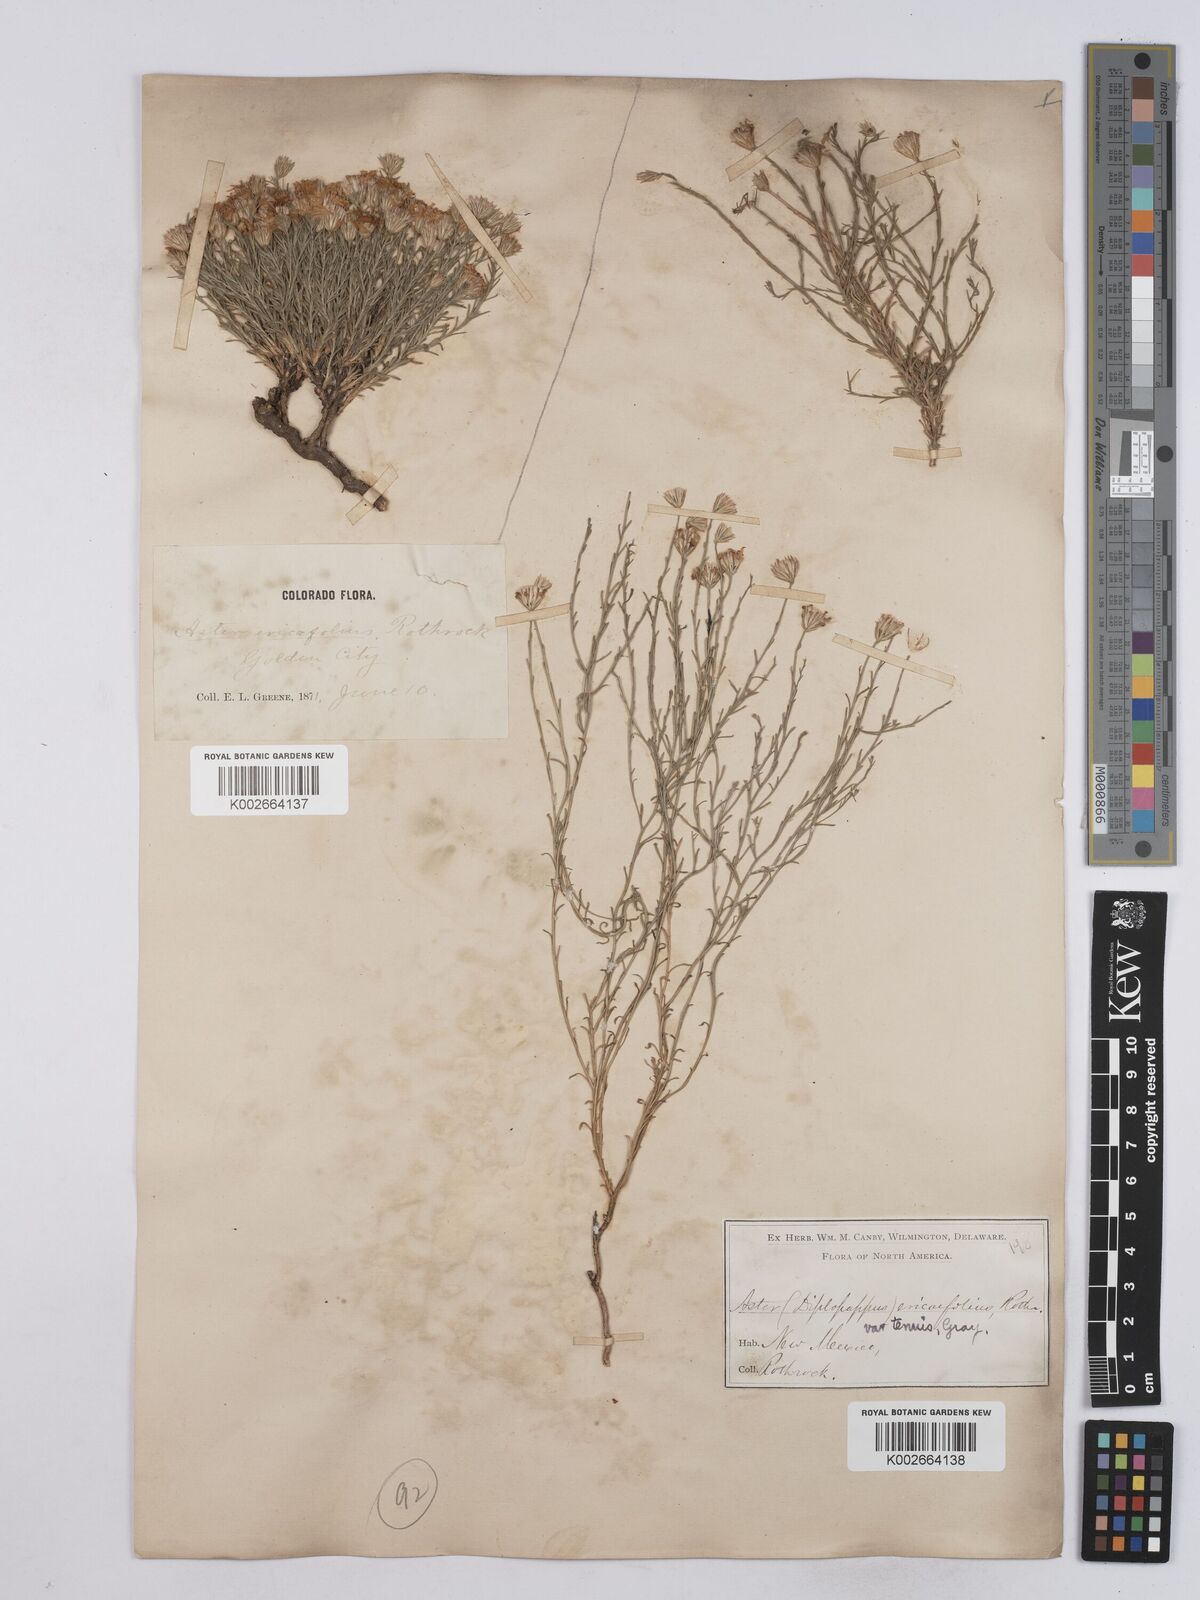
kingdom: Plantae
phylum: Tracheophyta
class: Magnoliopsida
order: Asterales
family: Asteraceae
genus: Chaetopappa
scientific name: Chaetopappa ericoides
